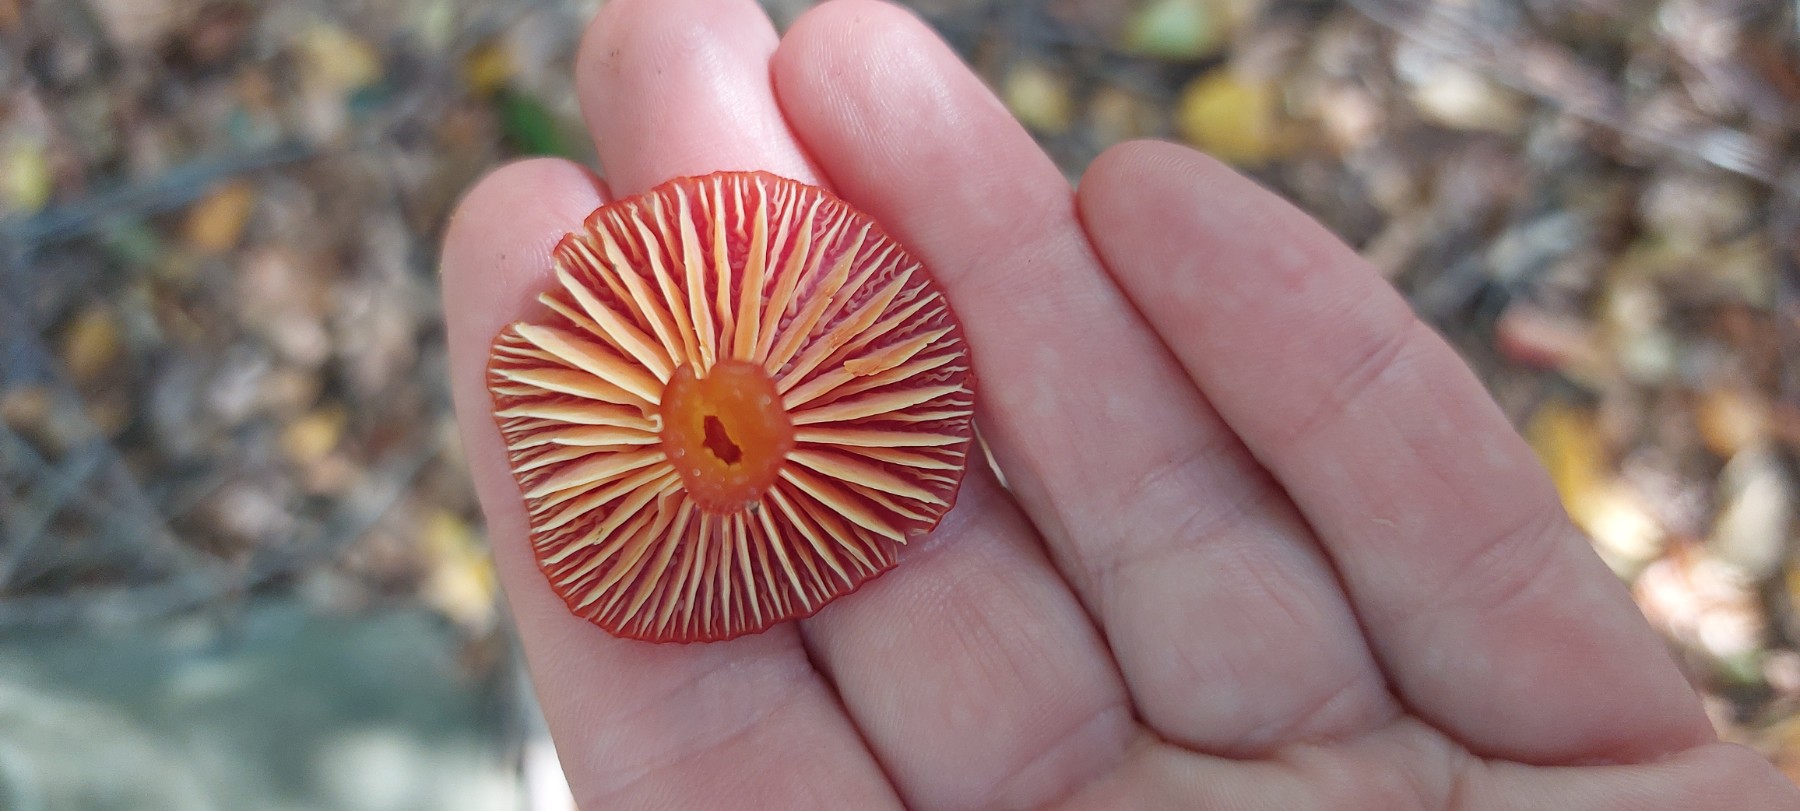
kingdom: Fungi
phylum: Basidiomycota
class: Agaricomycetes
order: Agaricales
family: Hygrophoraceae
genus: Hygrocybe
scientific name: Hygrocybe coccinea
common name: cinnober-vokshat
